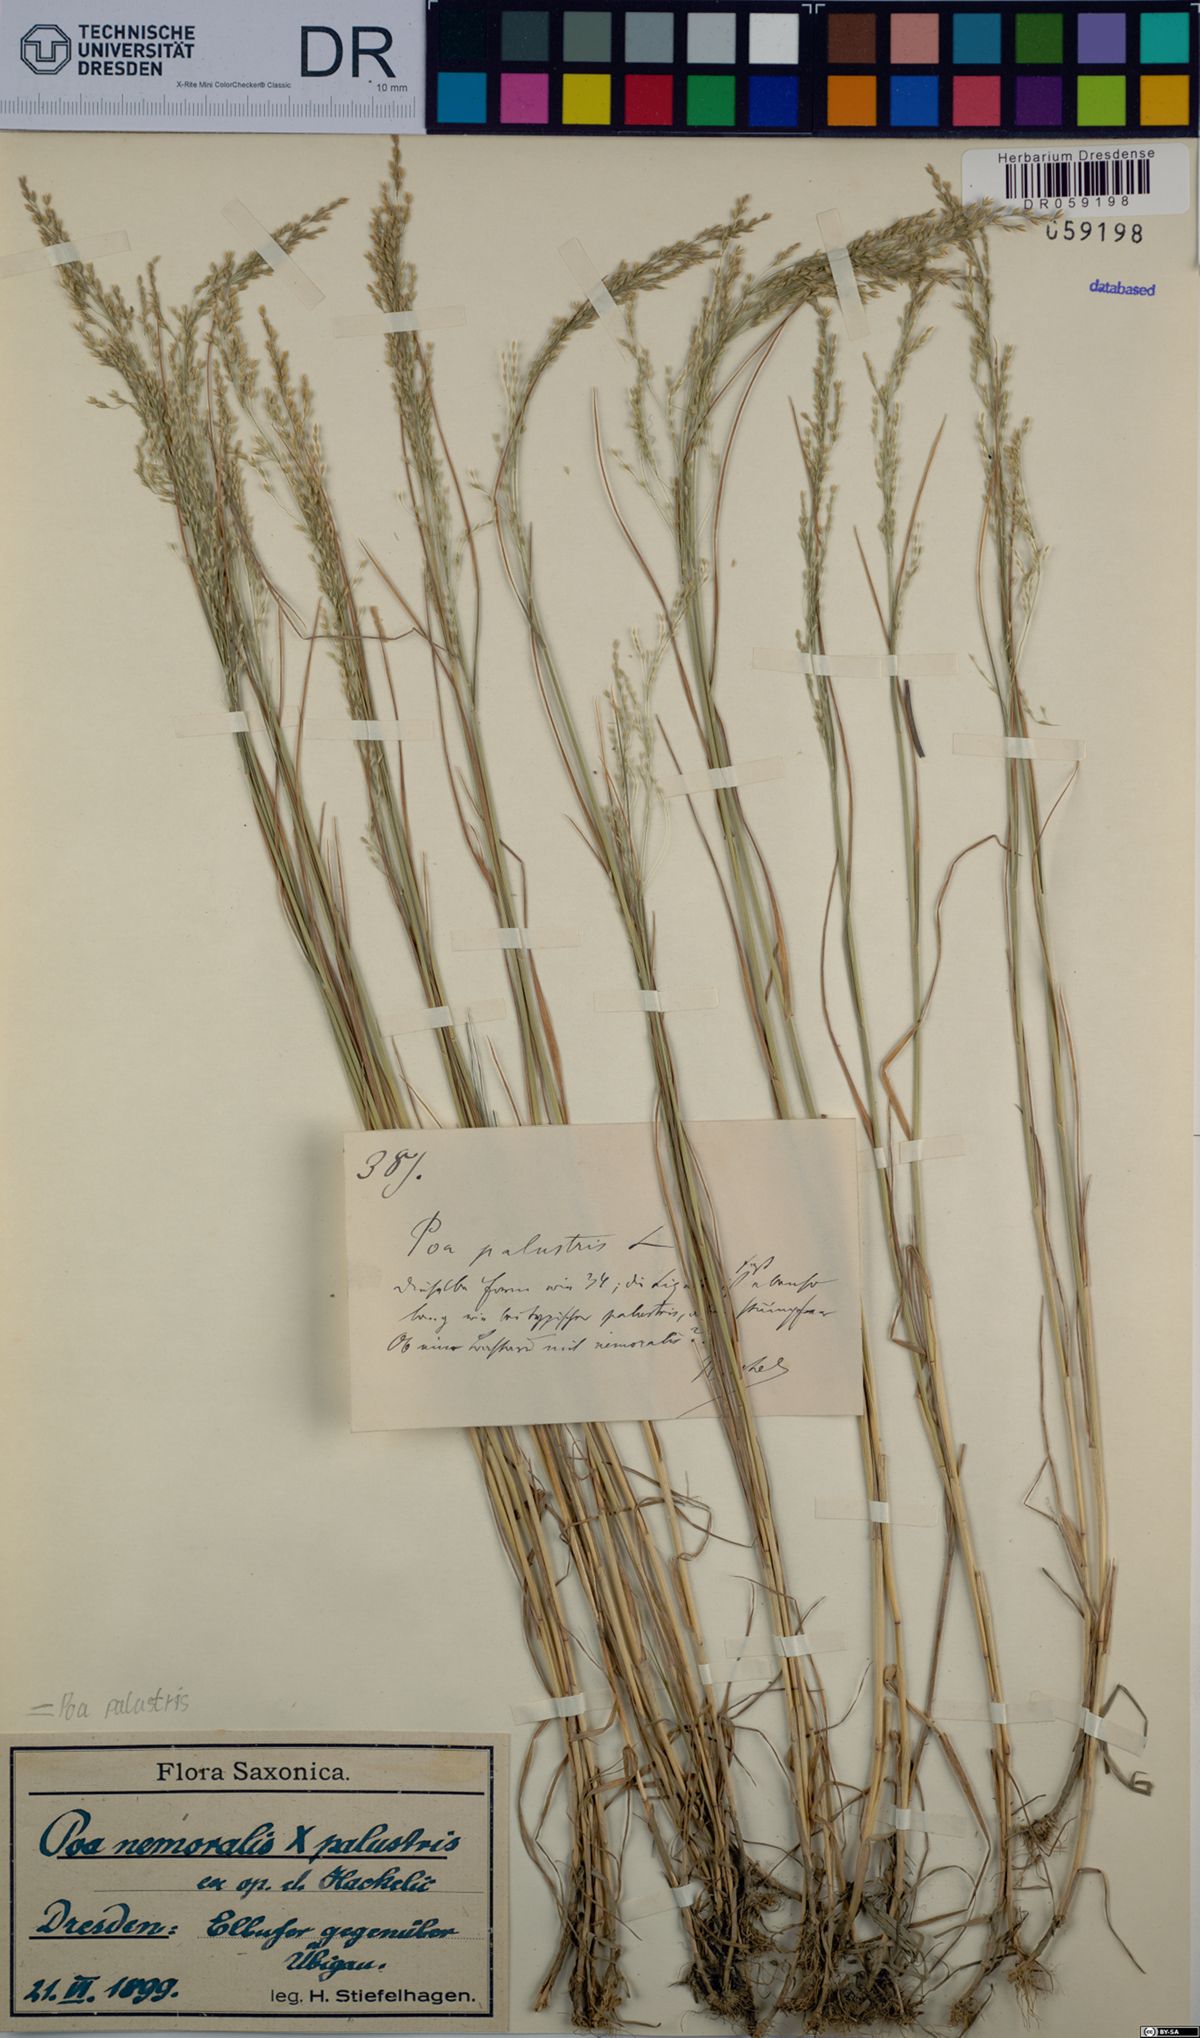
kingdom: Plantae
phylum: Tracheophyta
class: Liliopsida
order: Poales
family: Poaceae
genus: Poa
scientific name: Poa palustris
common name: Swamp meadow-grass
